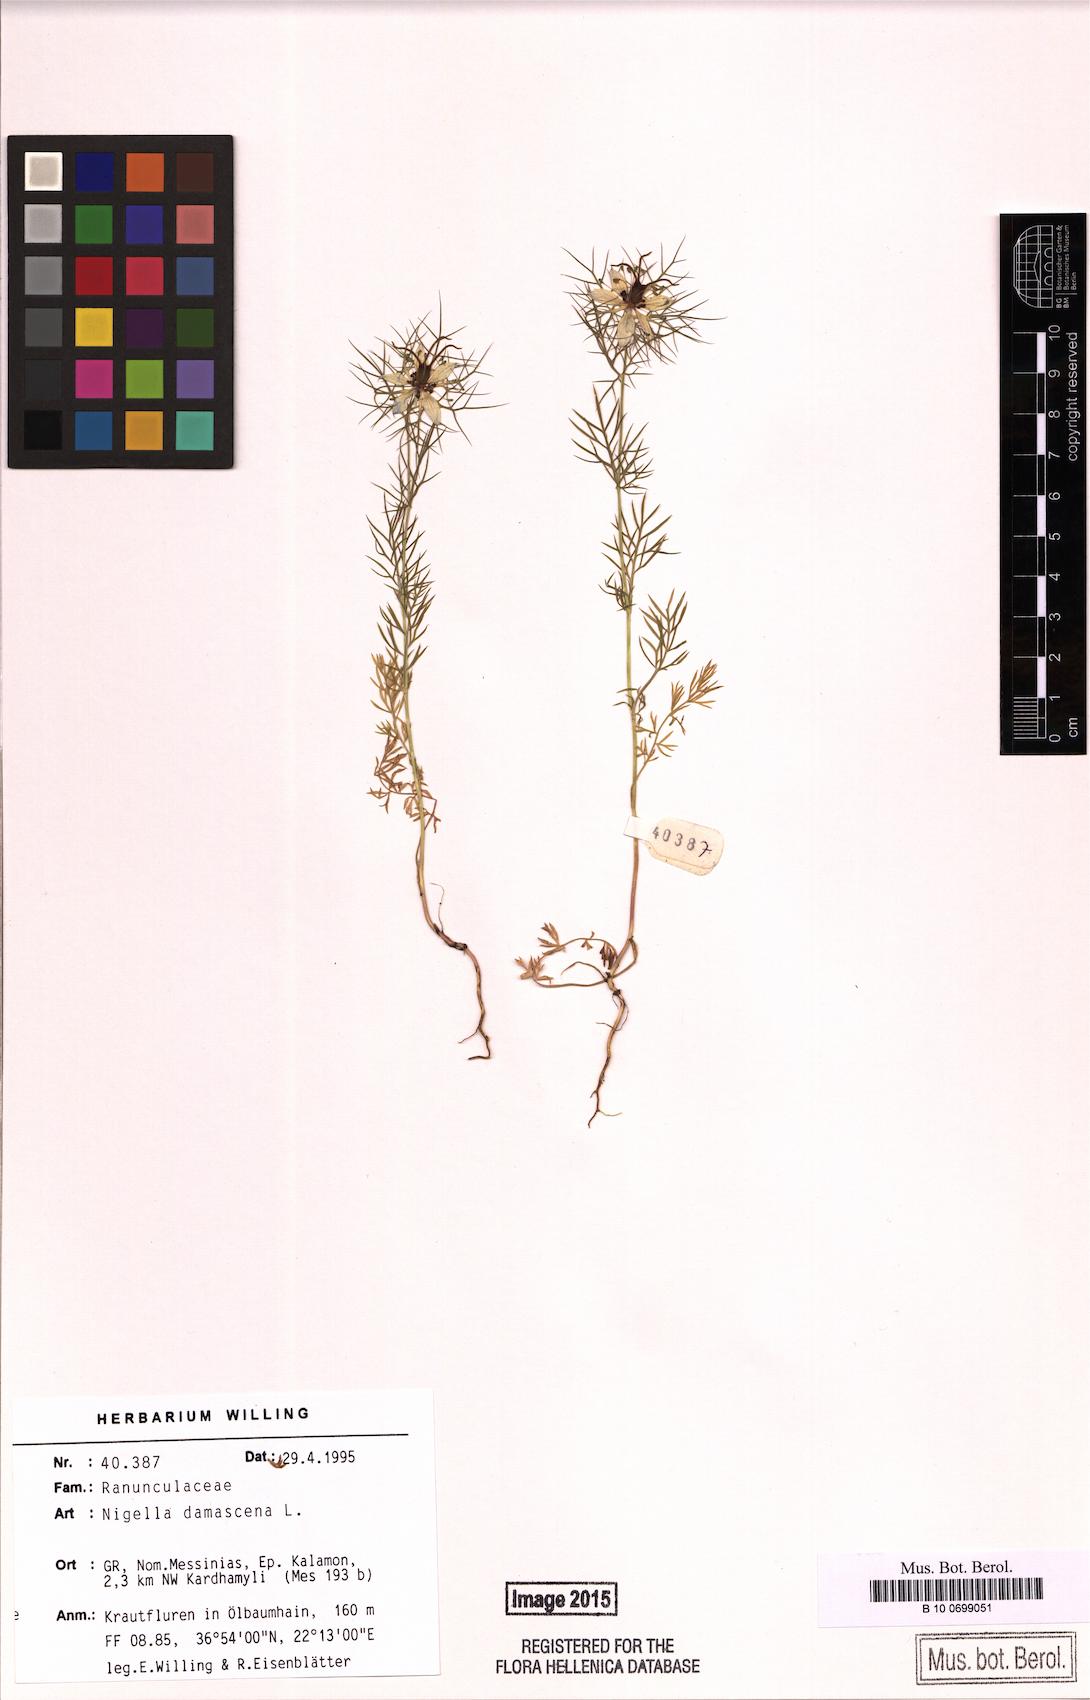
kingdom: Plantae
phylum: Tracheophyta
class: Magnoliopsida
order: Ranunculales
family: Ranunculaceae
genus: Nigella
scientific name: Nigella damascena
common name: Love-in-a-mist
